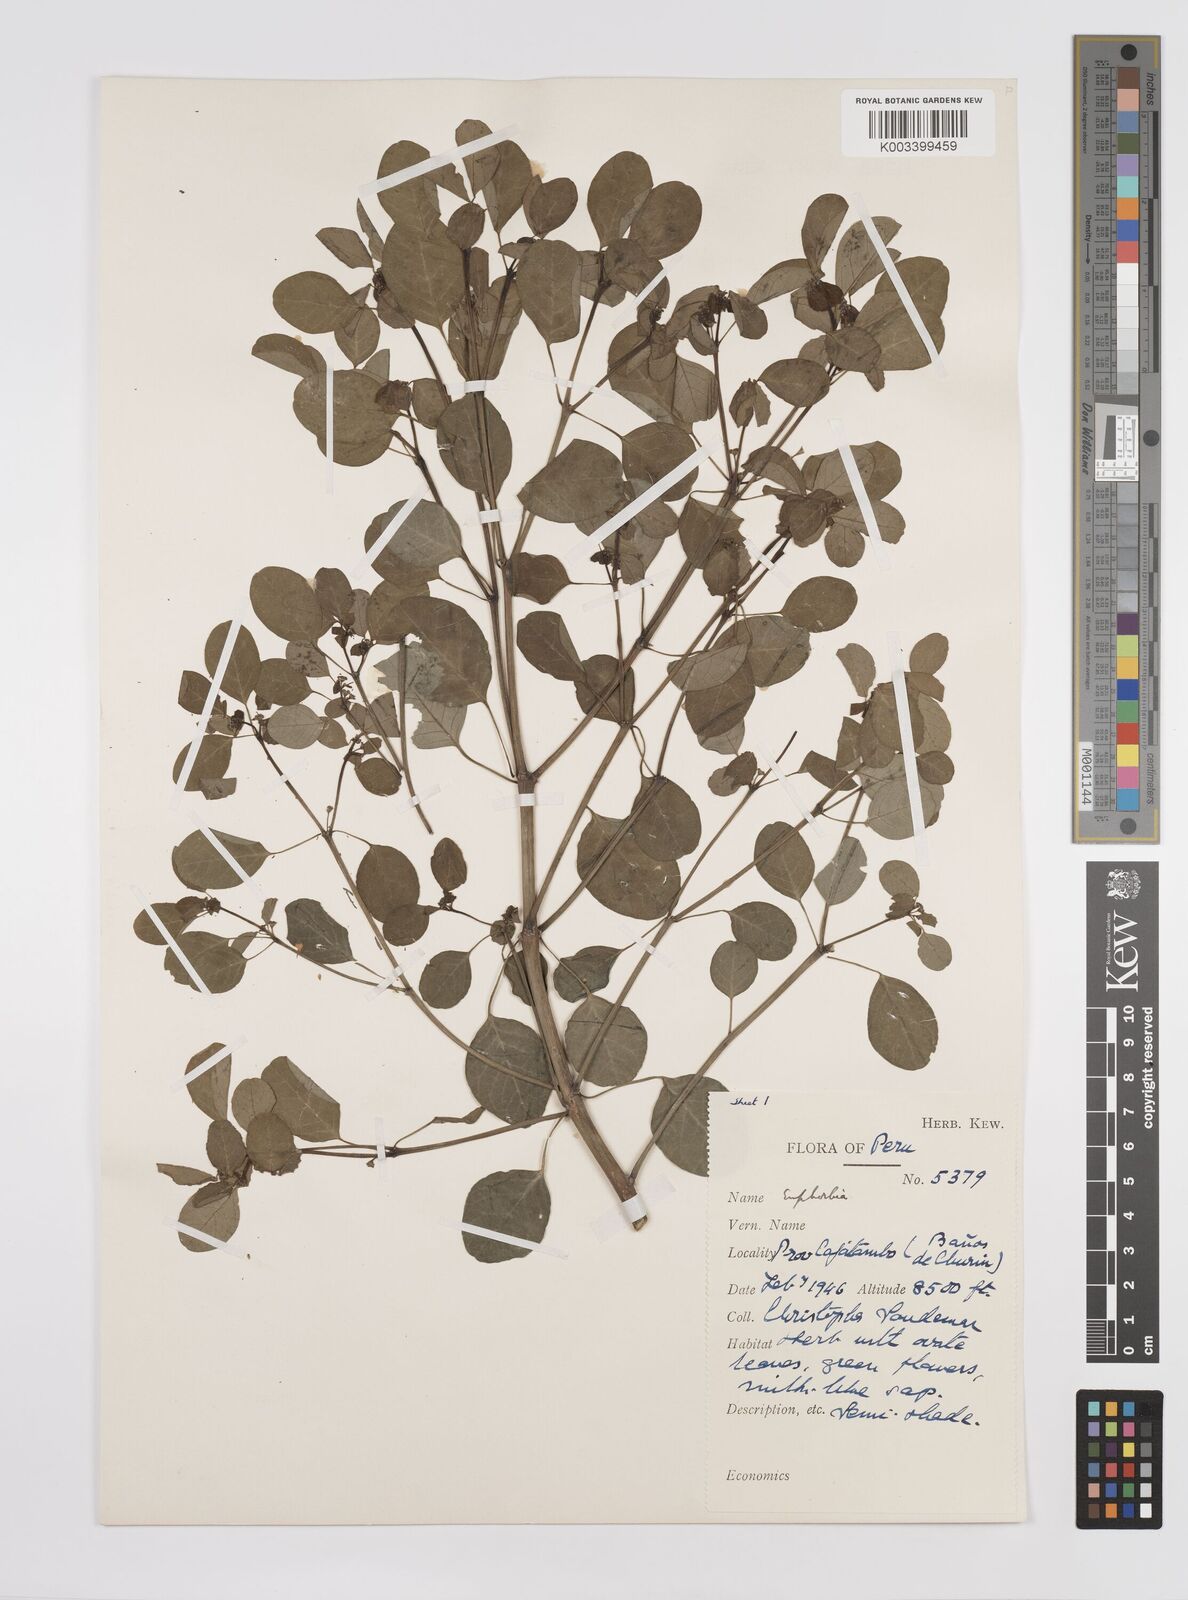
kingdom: Plantae
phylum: Tracheophyta
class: Magnoliopsida
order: Malpighiales
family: Euphorbiaceae
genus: Euphorbia
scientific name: Euphorbia
